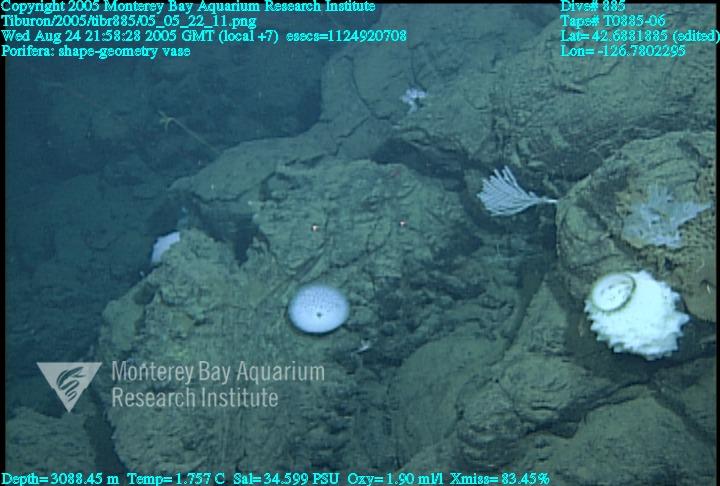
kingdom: Animalia
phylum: Porifera
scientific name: Porifera
